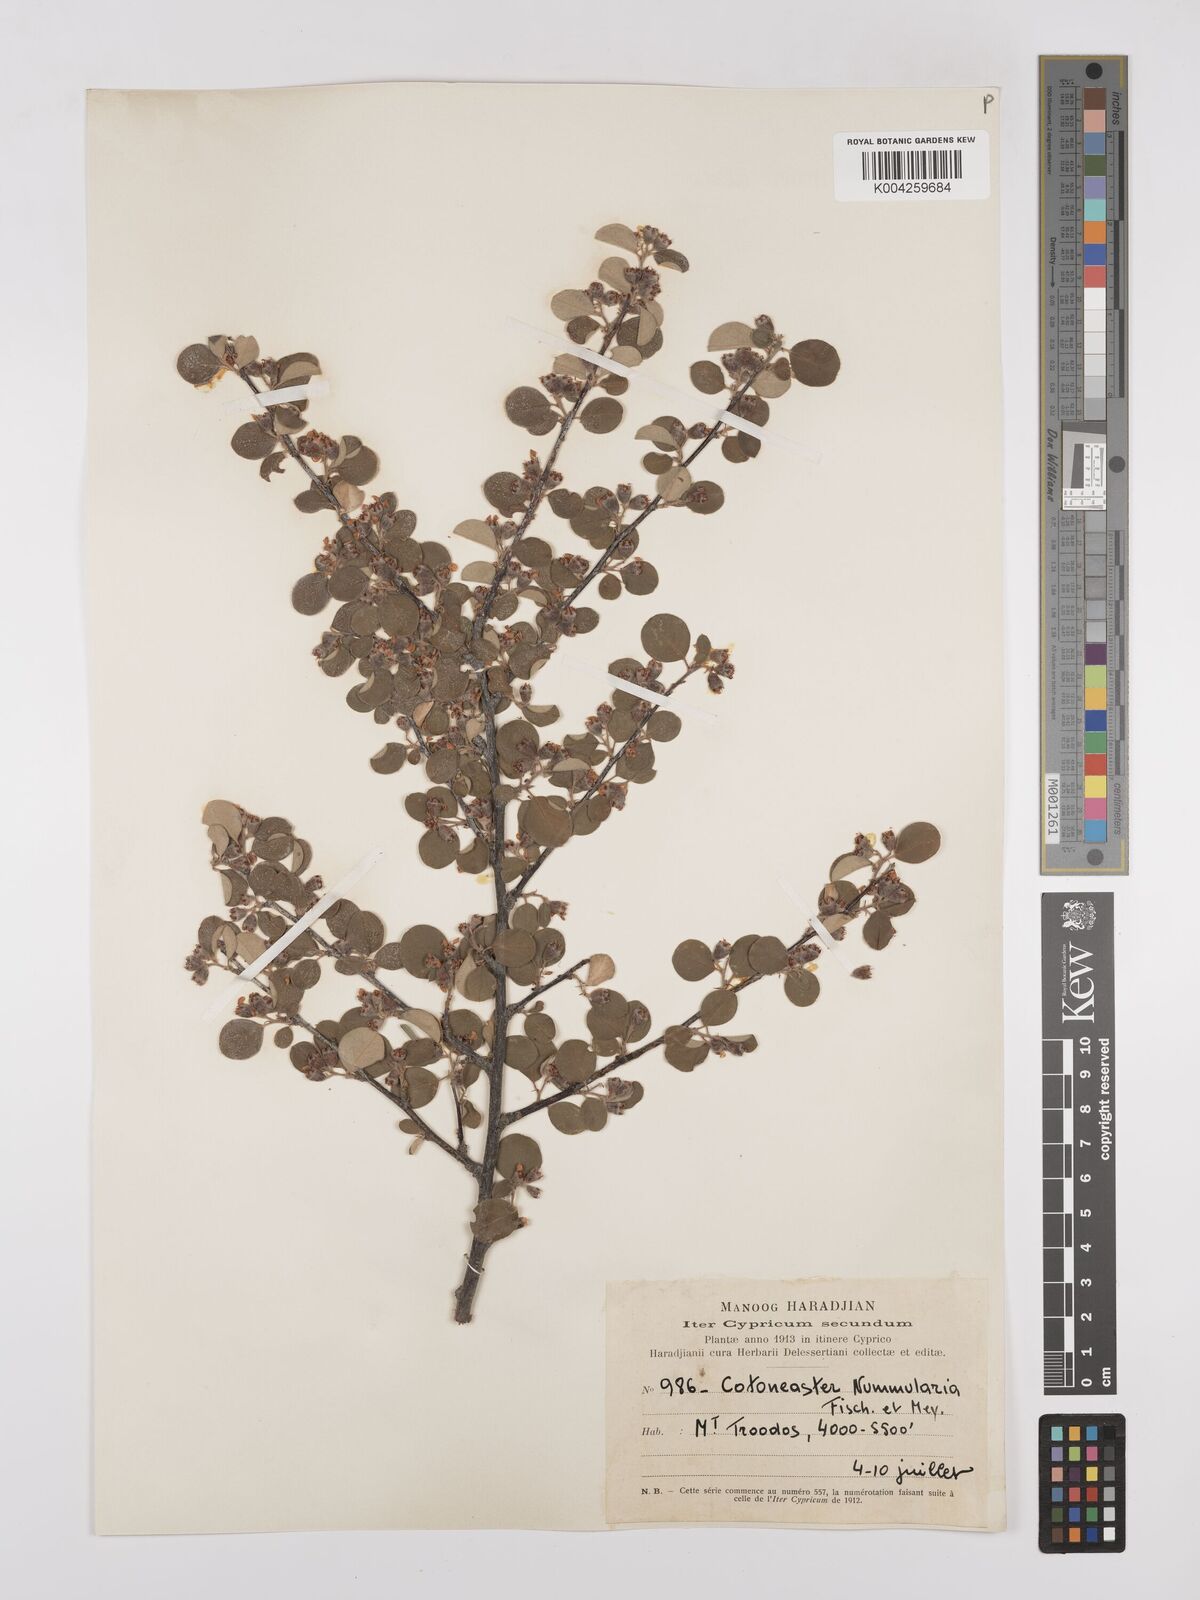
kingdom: Plantae
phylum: Tracheophyta
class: Magnoliopsida
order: Rosales
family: Rosaceae
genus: Cotoneaster
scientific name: Cotoneaster nummularius
